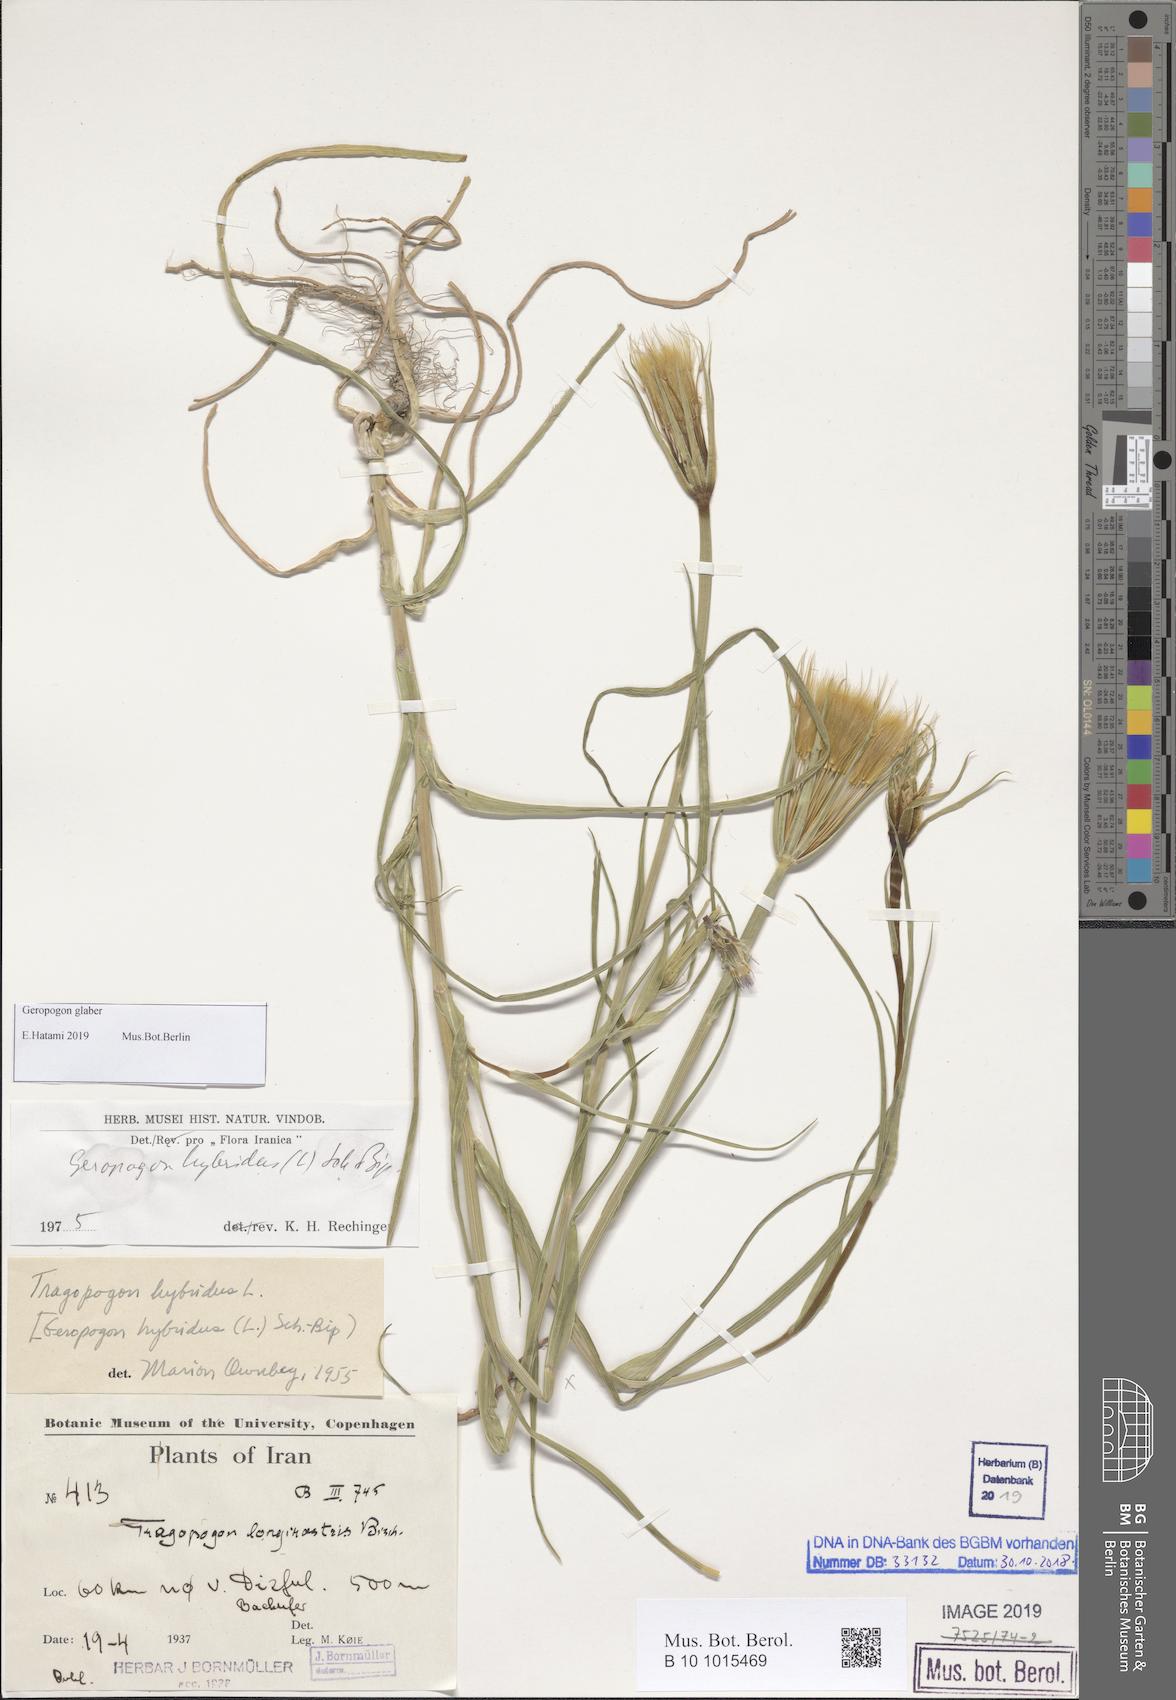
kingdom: Plantae
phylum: Tracheophyta
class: Magnoliopsida
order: Asterales
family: Asteraceae
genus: Geropogon
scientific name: Geropogon hybridus
